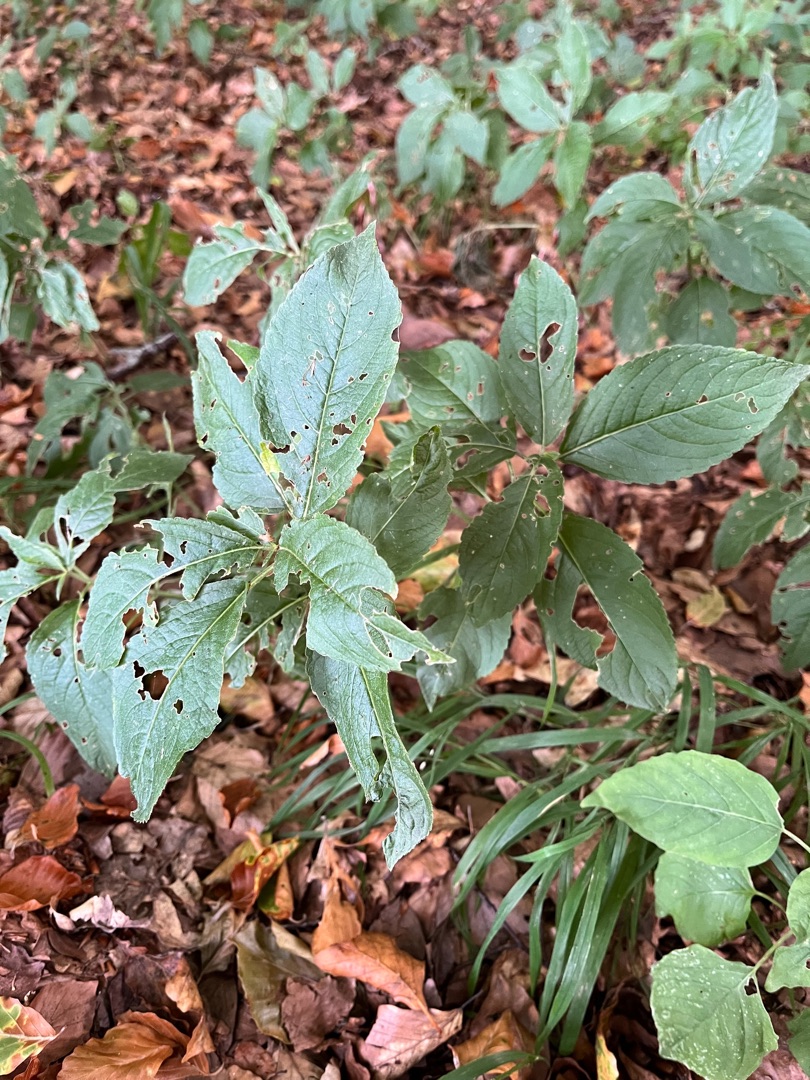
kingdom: Plantae
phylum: Tracheophyta
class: Magnoliopsida
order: Malpighiales
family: Euphorbiaceae
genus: Mercurialis
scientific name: Mercurialis perennis
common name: Almindelig bingelurt
